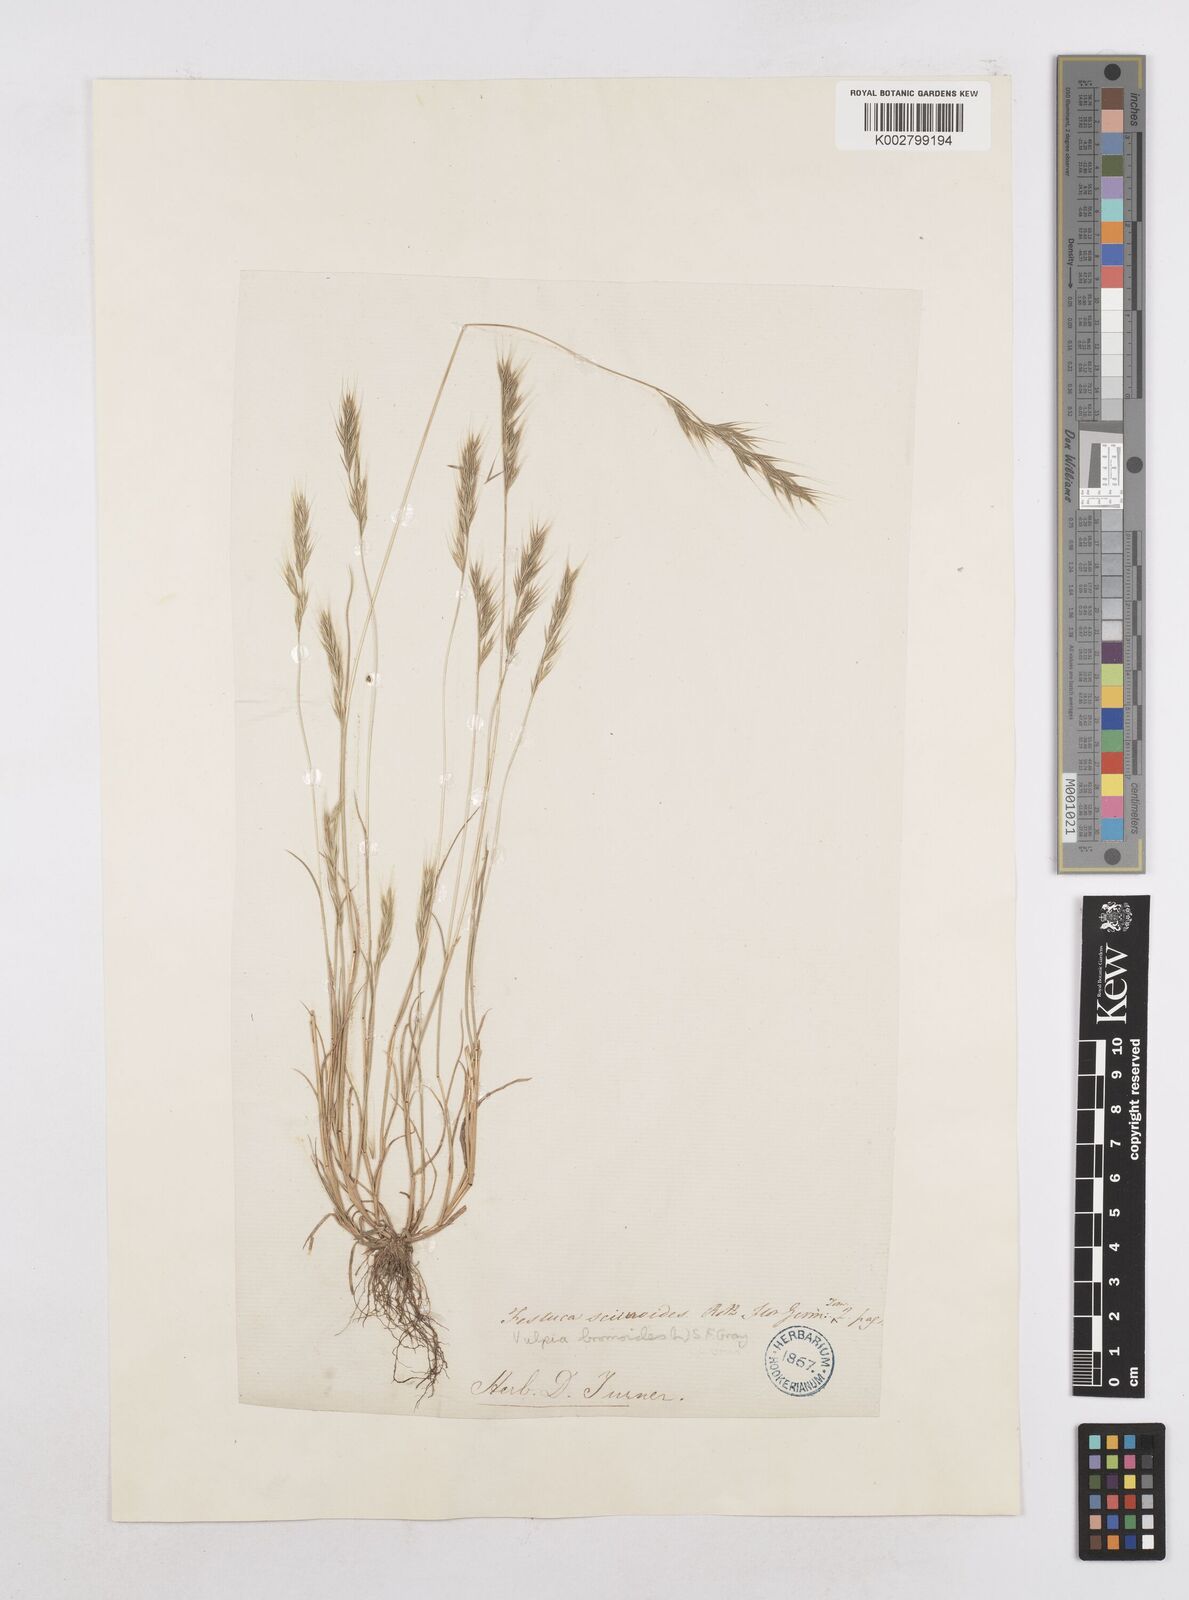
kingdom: Plantae
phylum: Tracheophyta
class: Liliopsida
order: Poales
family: Poaceae
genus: Festuca
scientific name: Festuca bromoides
